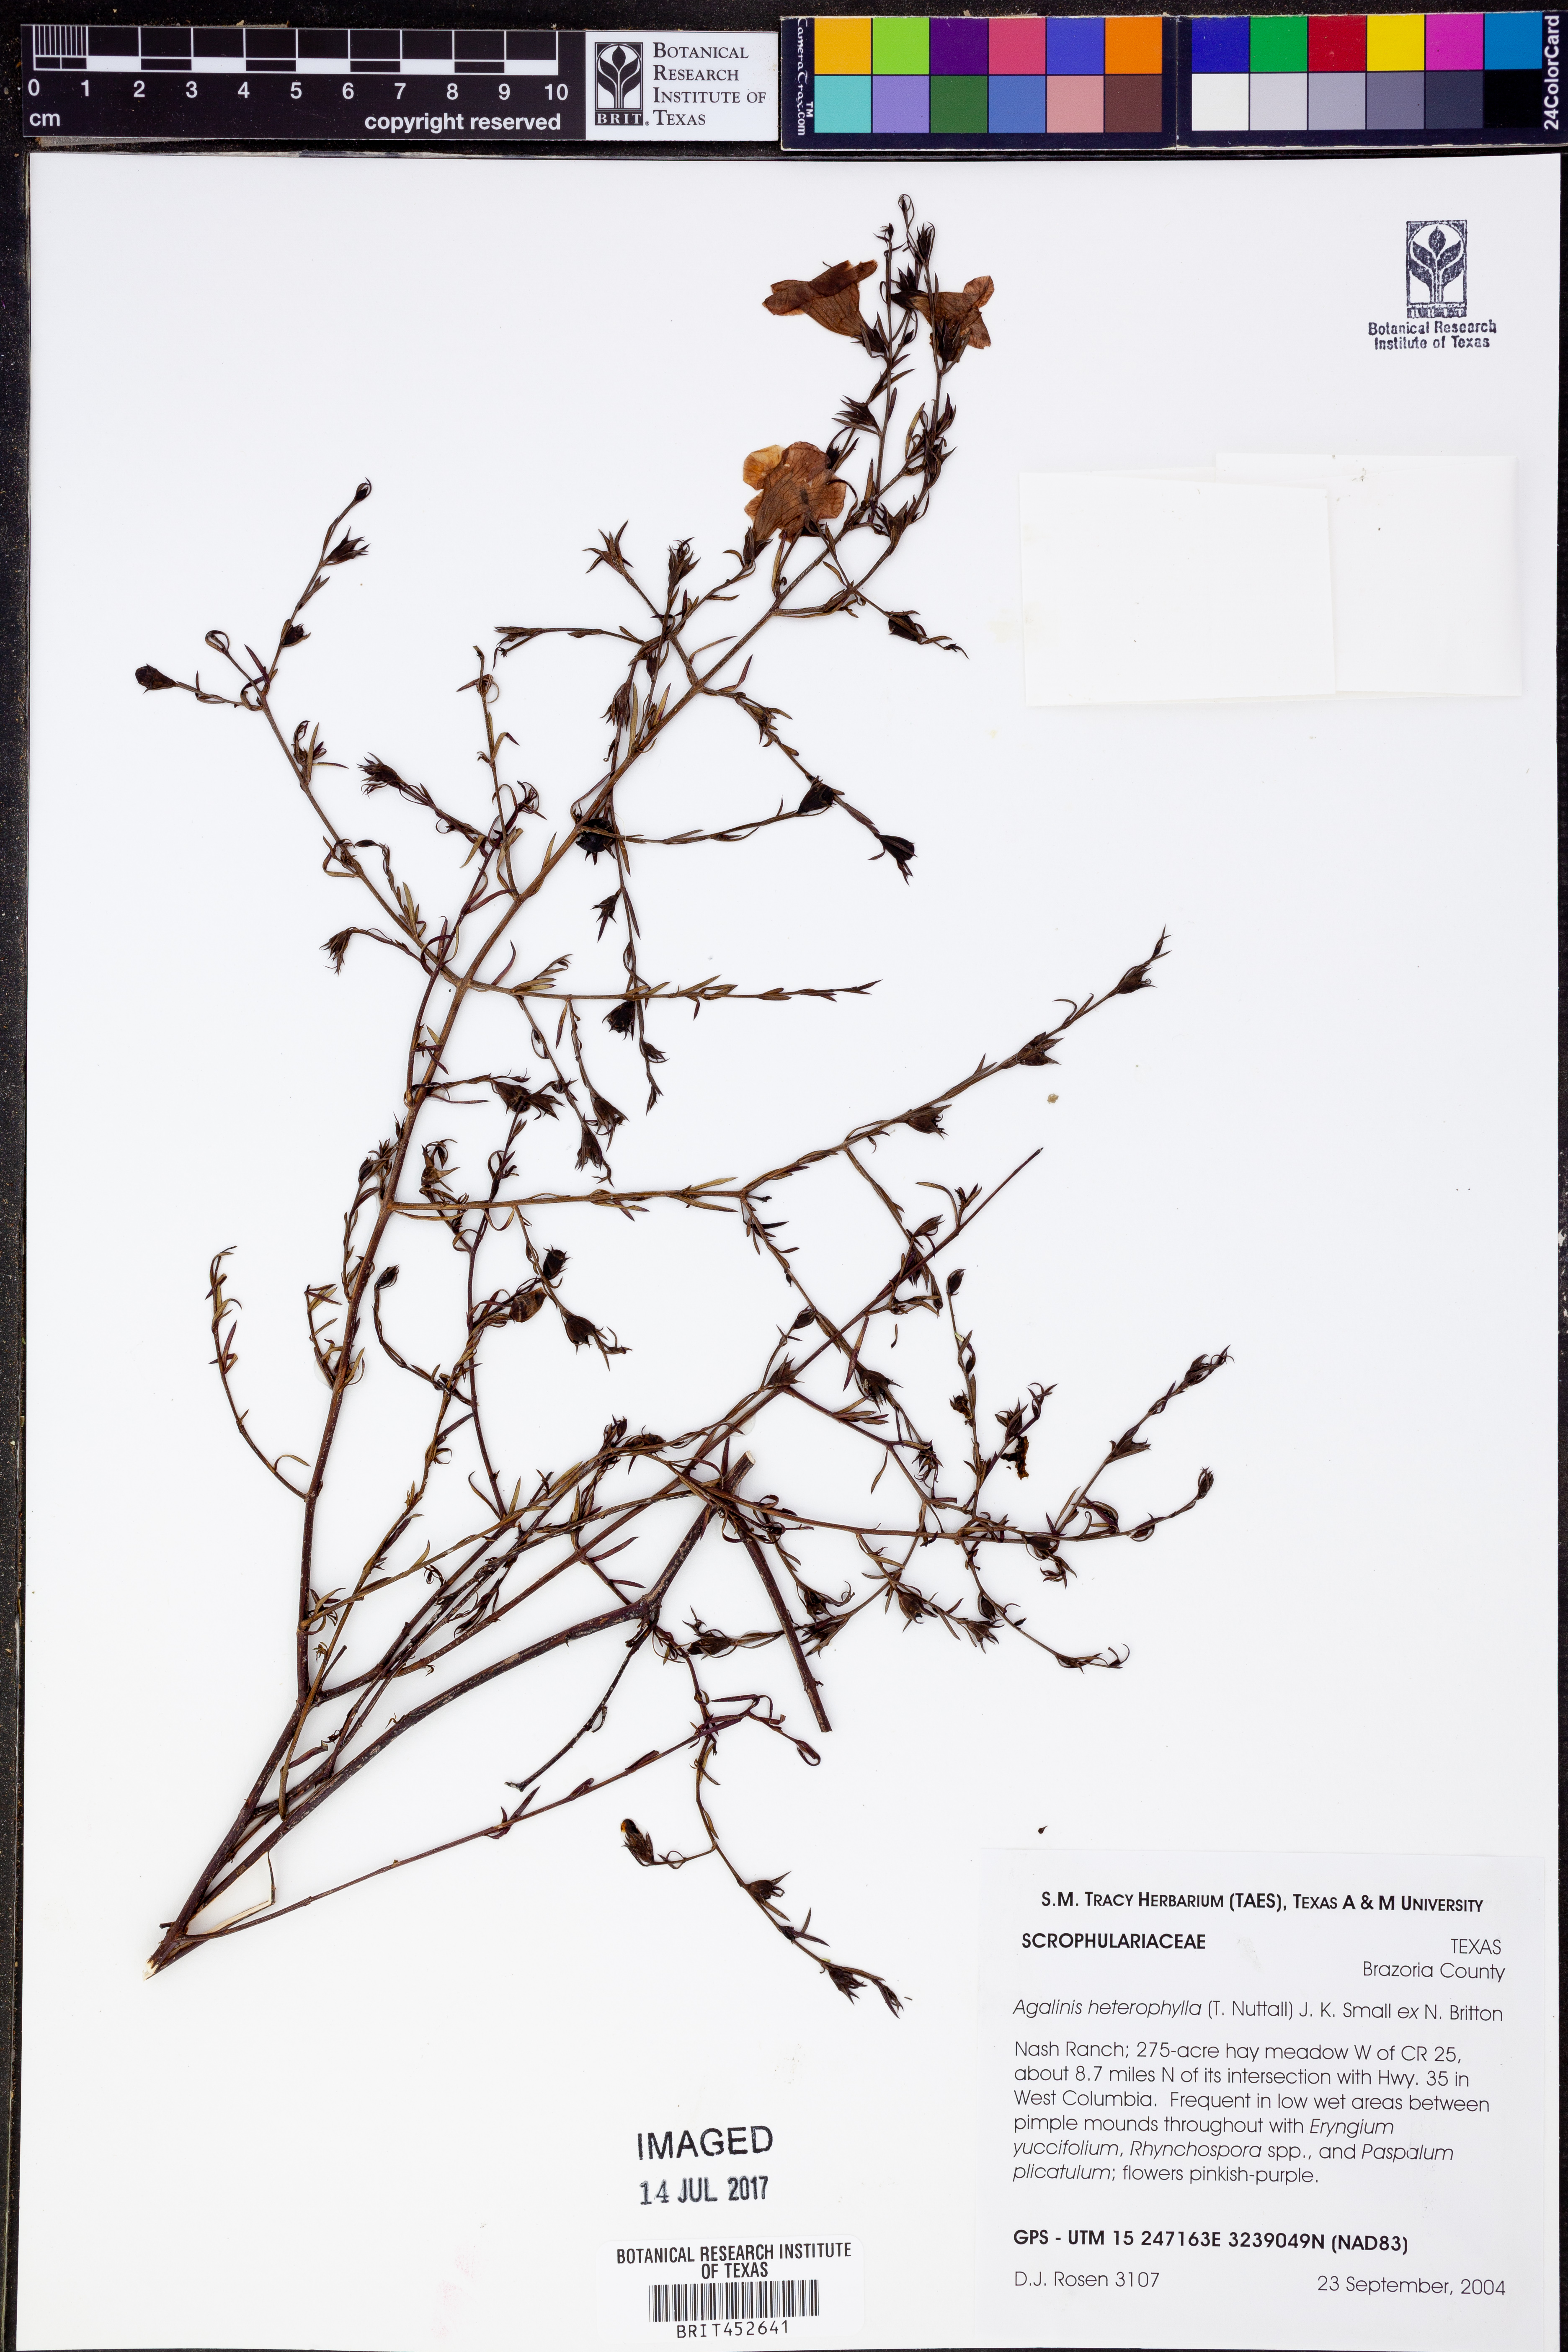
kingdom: Plantae
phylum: Tracheophyta
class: Magnoliopsida
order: Lamiales
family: Orobanchaceae
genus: Agalinis
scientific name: Agalinis heterophylla
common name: Prairie agalinis
